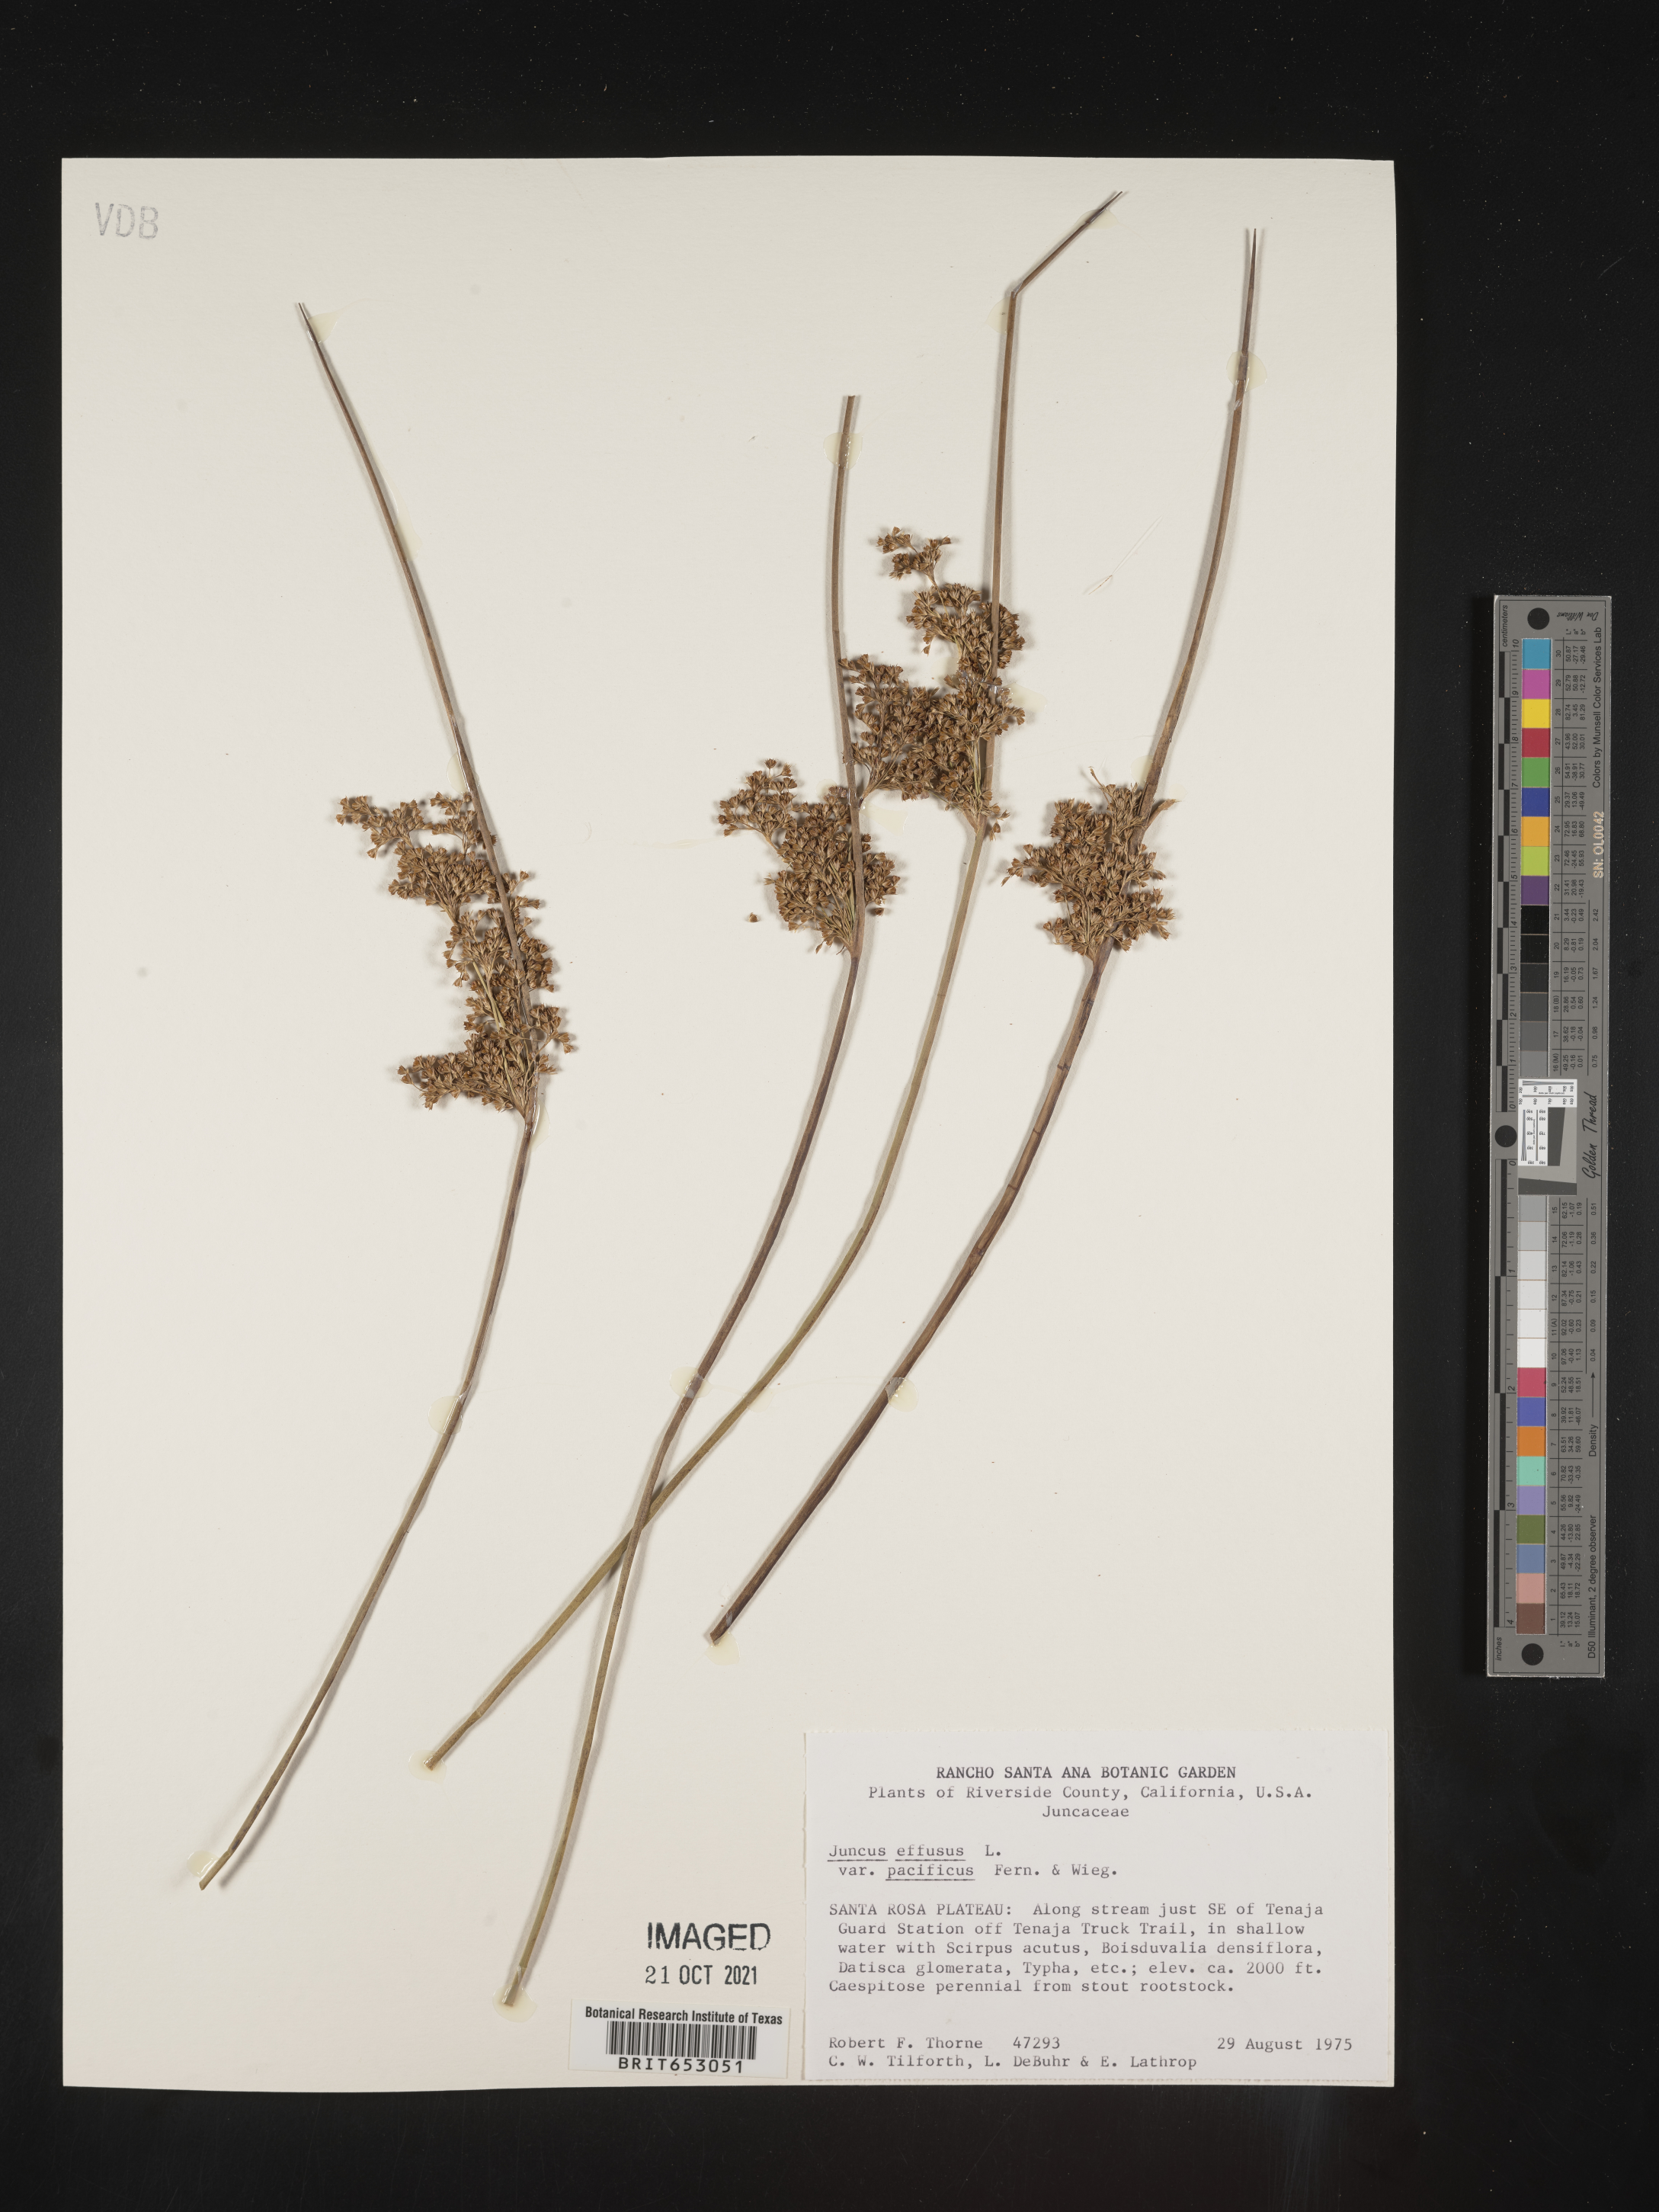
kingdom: Plantae
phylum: Tracheophyta
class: Liliopsida
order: Poales
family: Juncaceae
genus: Juncus
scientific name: Juncus effusus
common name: Soft rush
